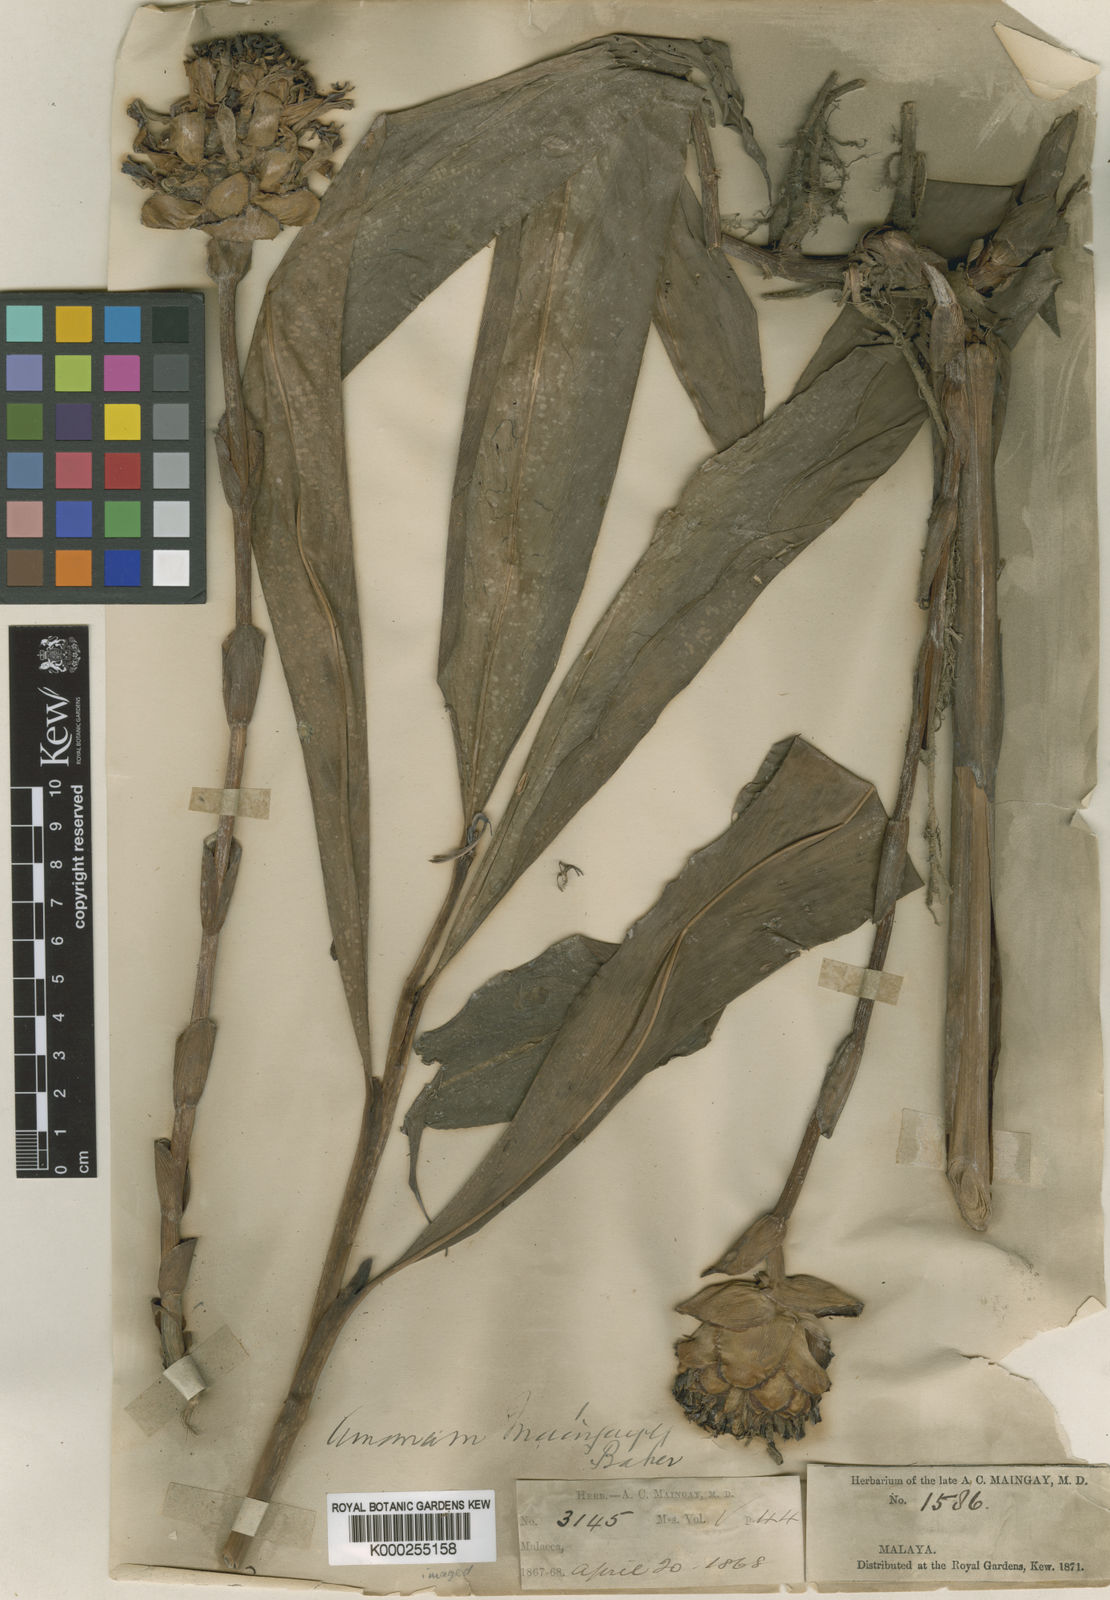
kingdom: Plantae
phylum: Tracheophyta
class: Liliopsida
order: Zingiberales
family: Zingiberaceae
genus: Etlingera
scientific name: Etlingera maingayi
